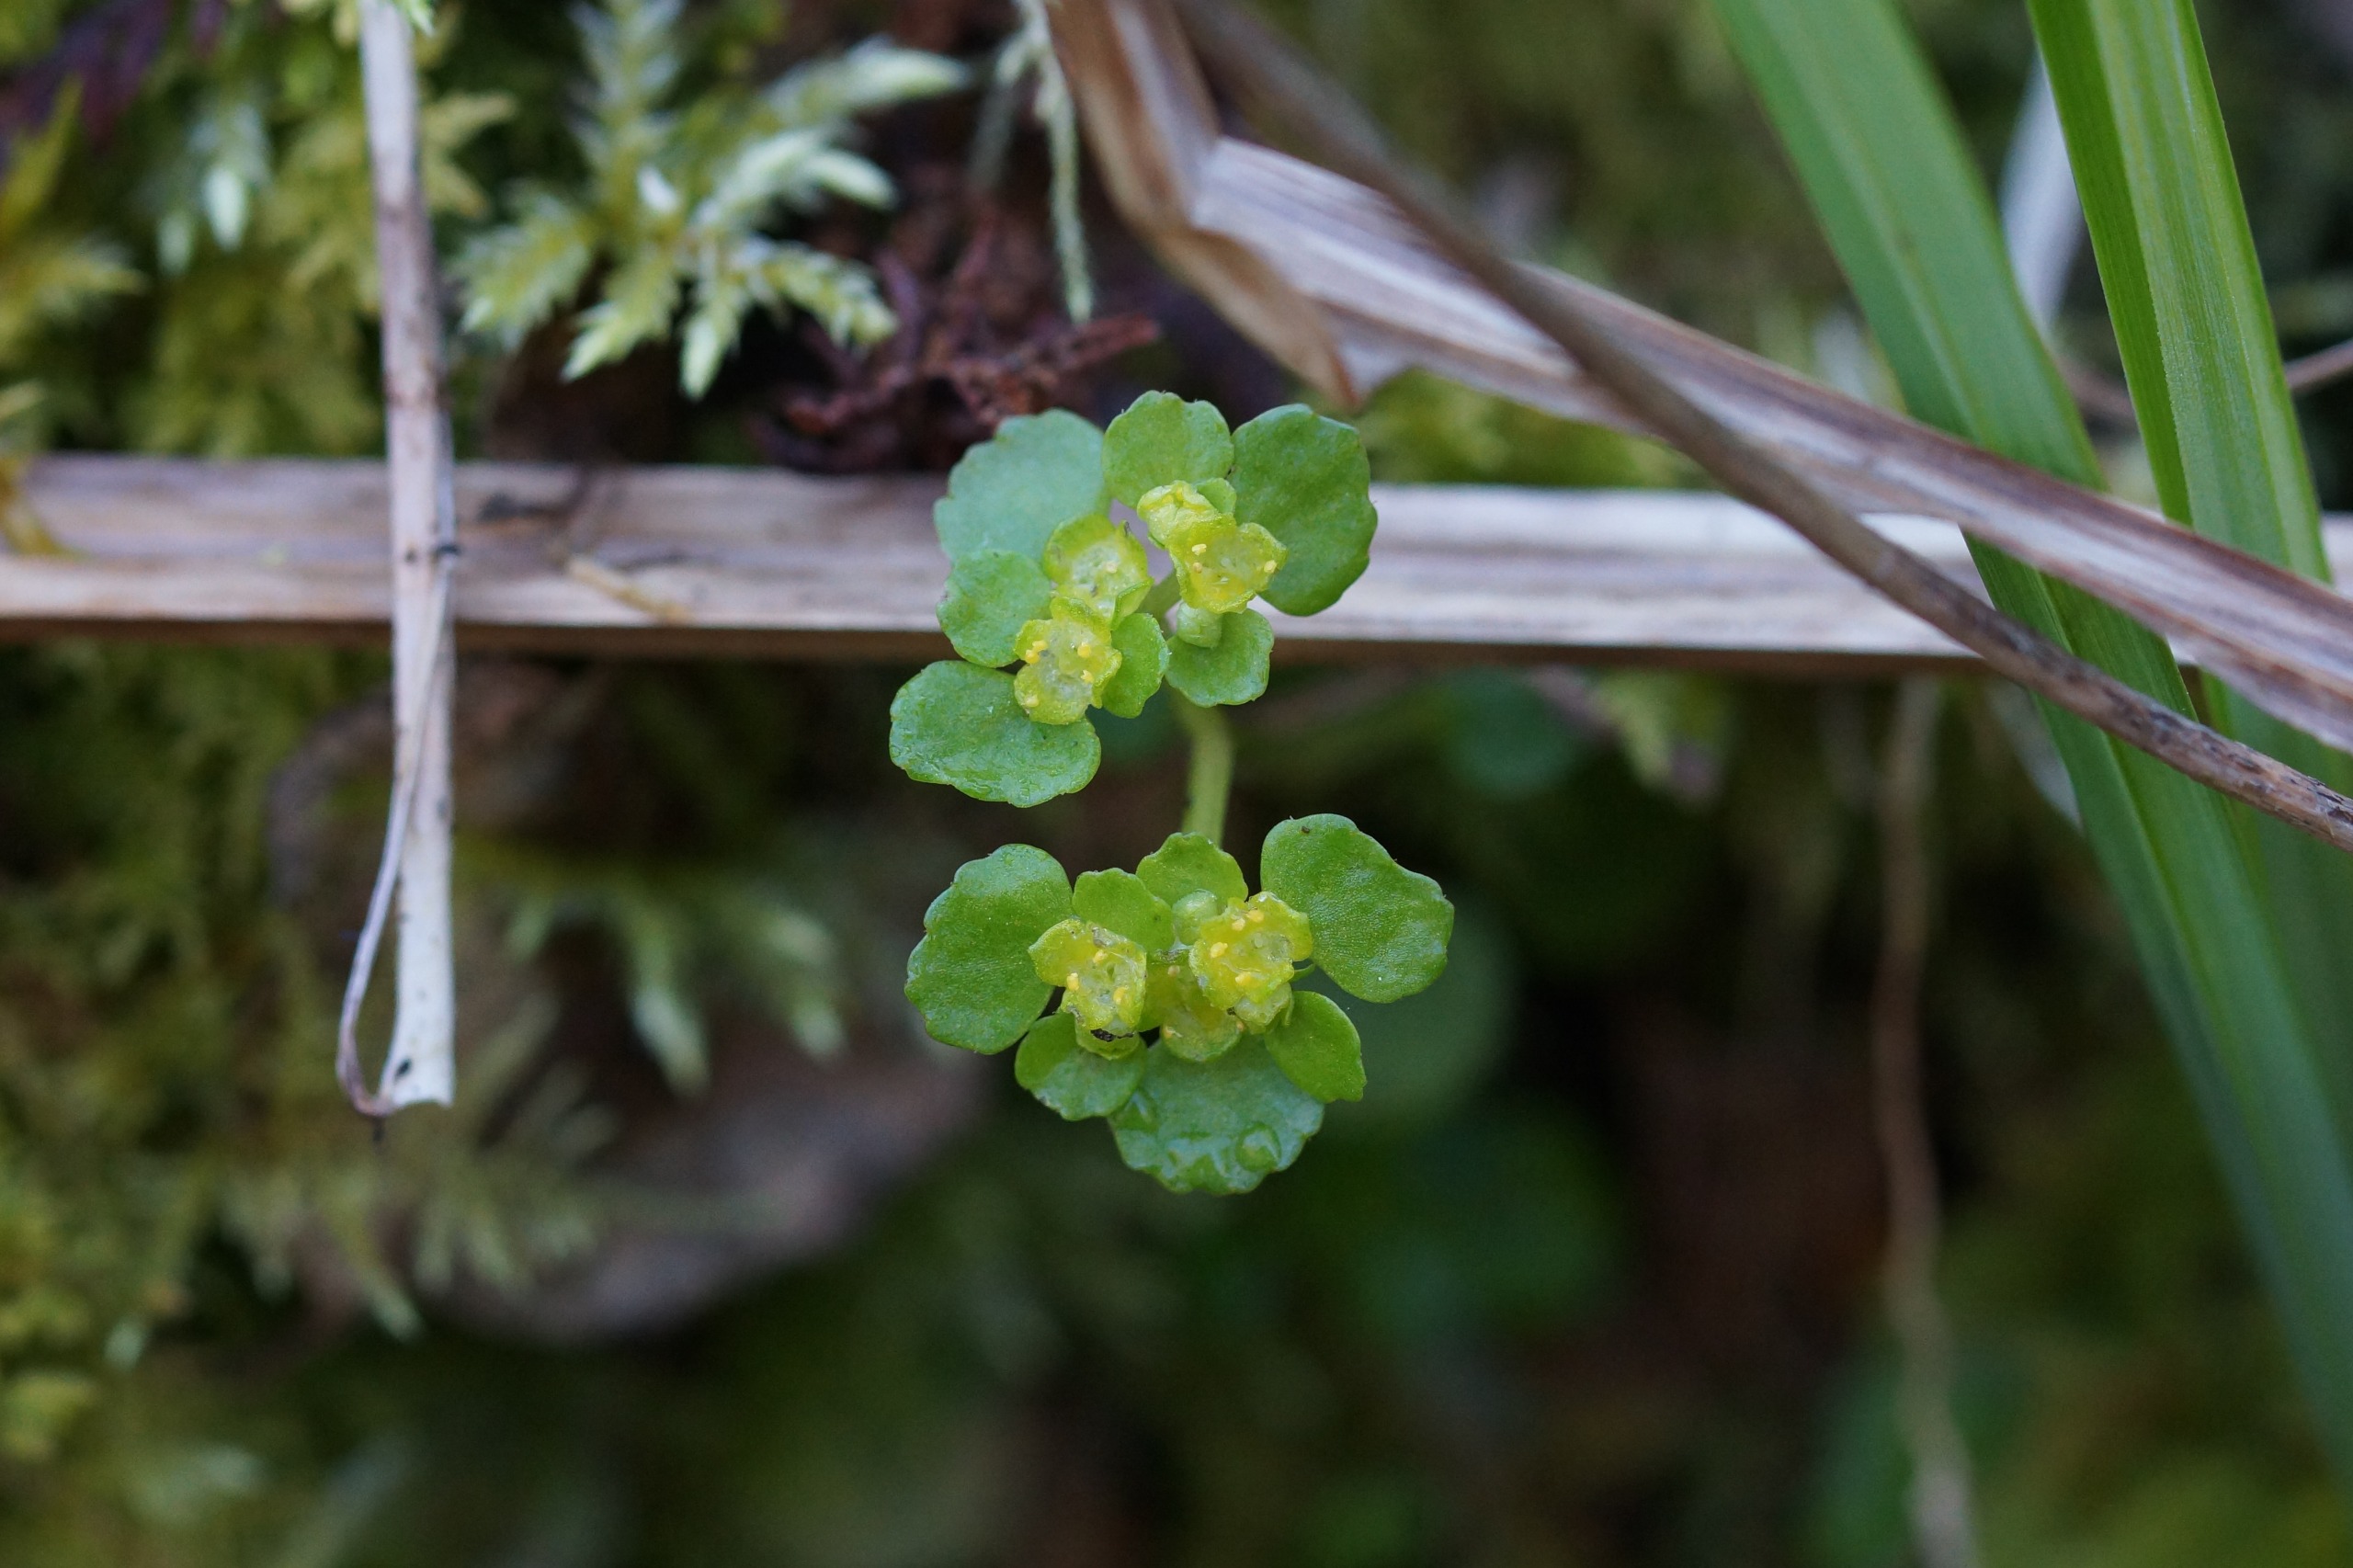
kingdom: Plantae
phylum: Tracheophyta
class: Magnoliopsida
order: Saxifragales
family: Saxifragaceae
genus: Chrysosplenium
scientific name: Chrysosplenium oppositifolium
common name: Småbladet milturt
